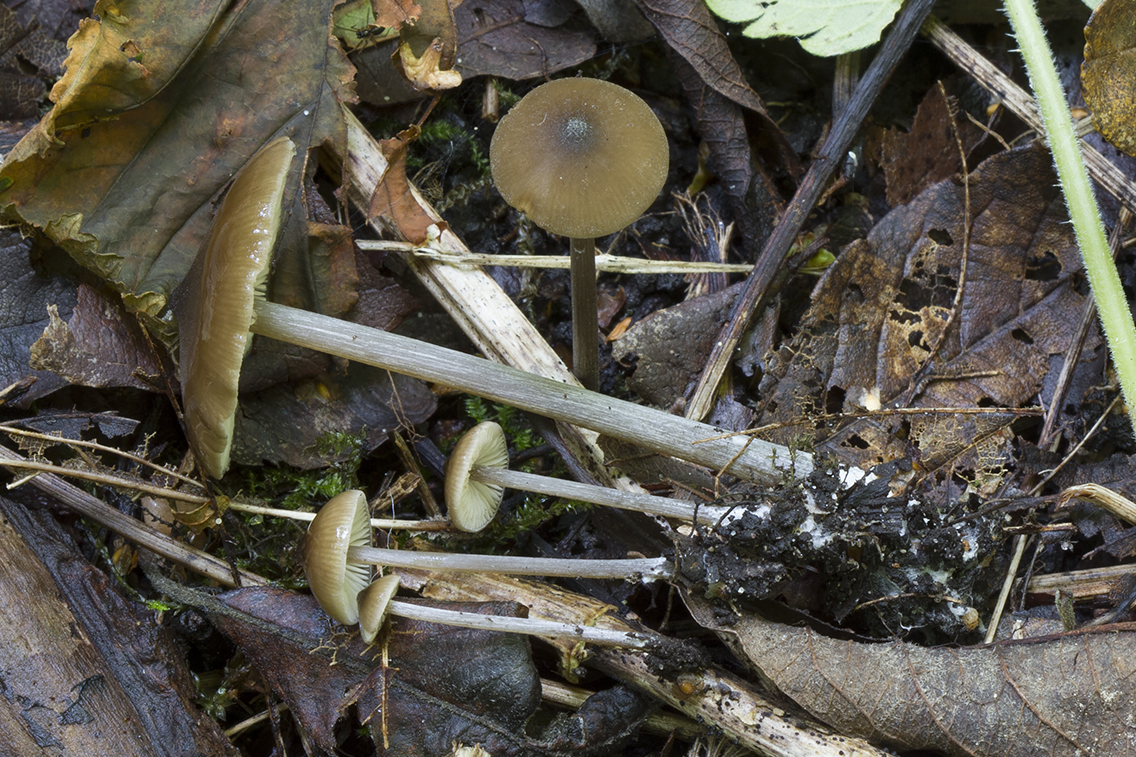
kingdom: Fungi
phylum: Basidiomycota
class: Agaricomycetes
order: Agaricales
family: Entolomataceae
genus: Entoloma
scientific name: Entoloma hebes
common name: krat-rødblad
